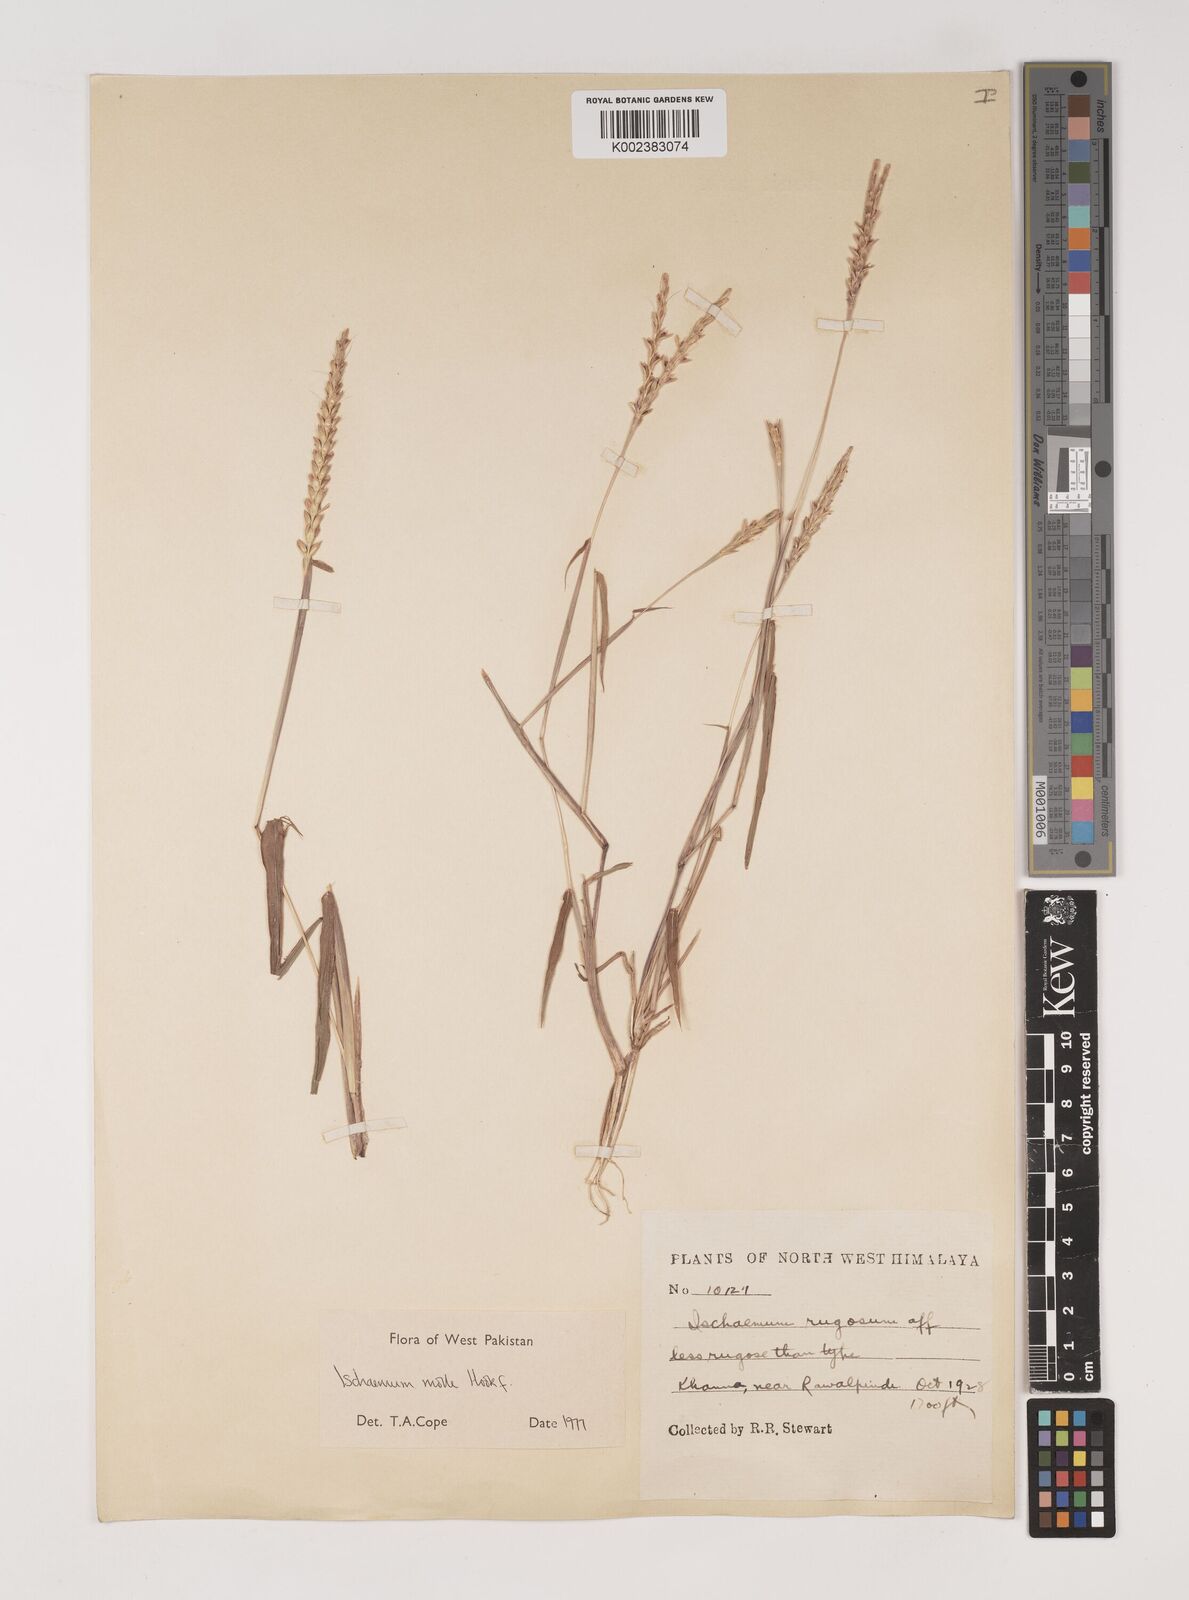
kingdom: Plantae
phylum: Tracheophyta
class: Liliopsida
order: Poales
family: Poaceae
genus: Ischaemum
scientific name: Ischaemum molle
